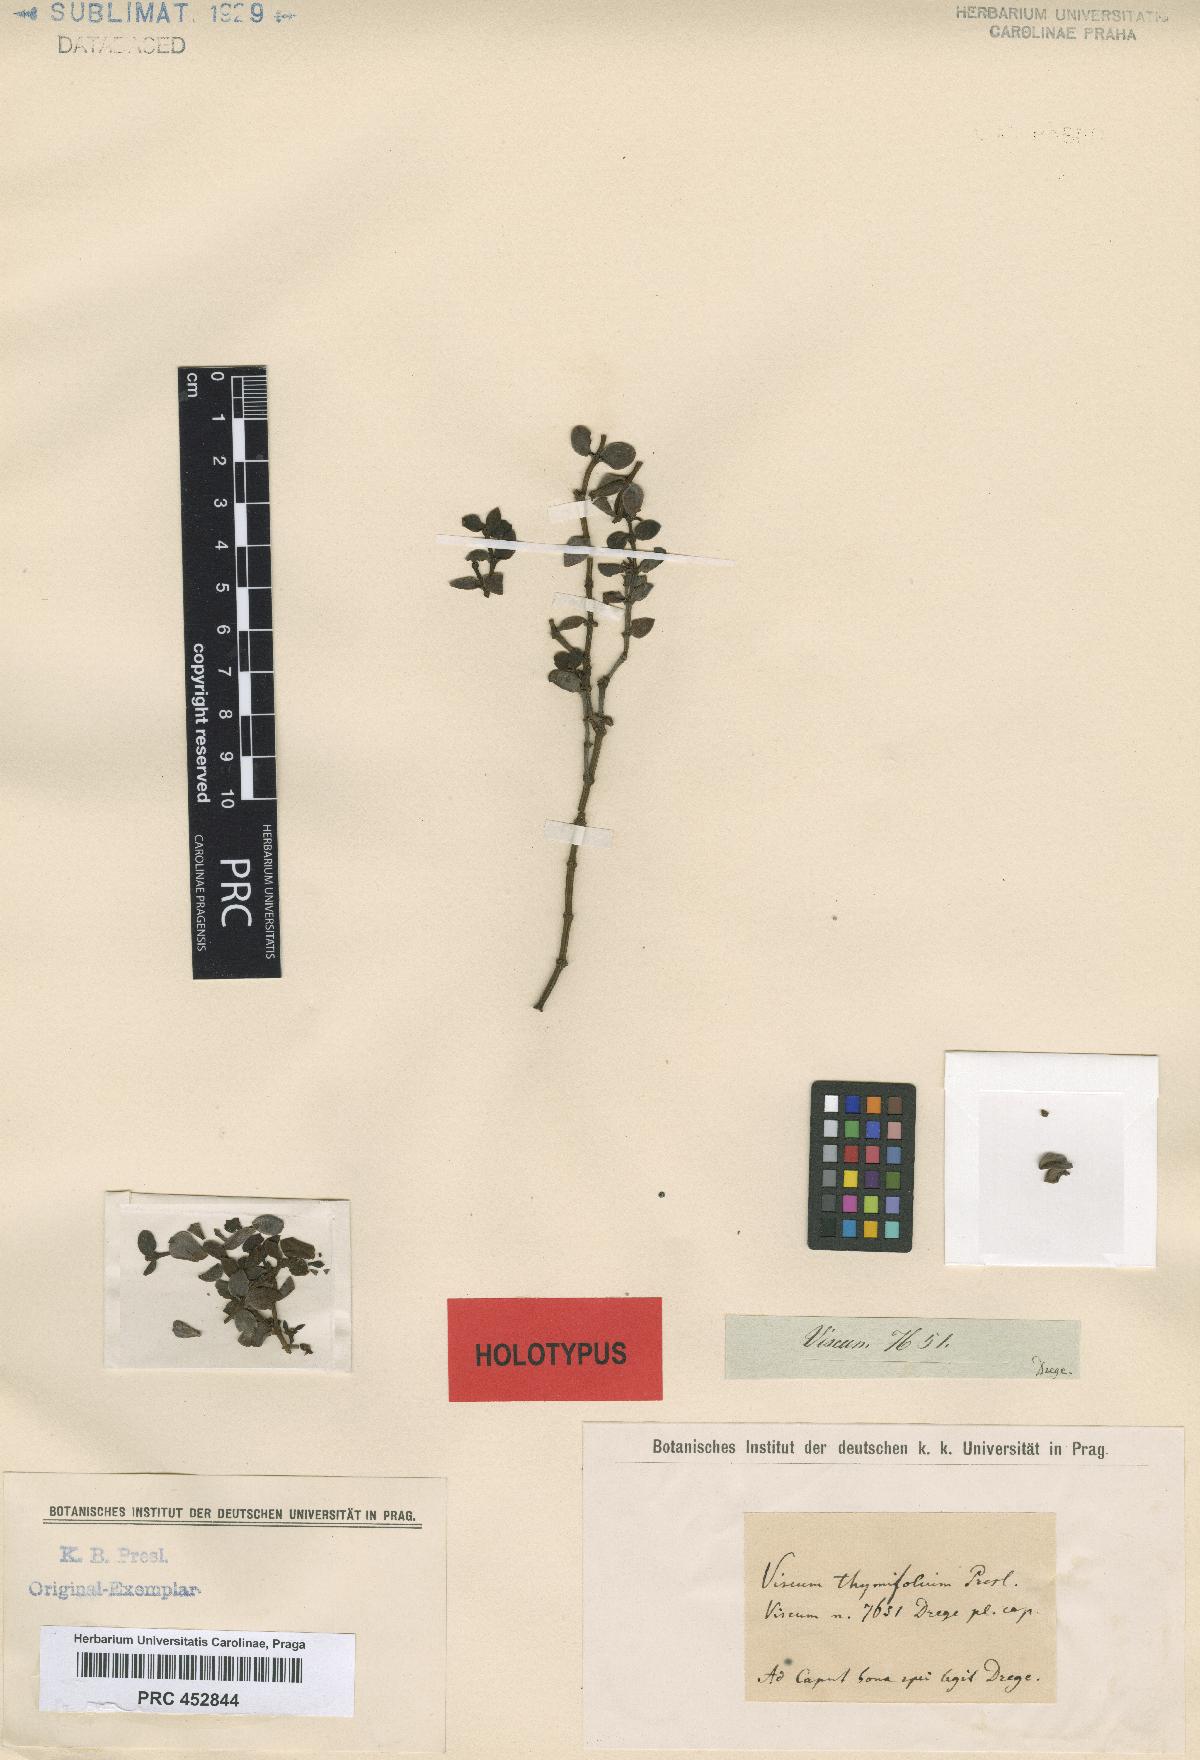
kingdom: Plantae
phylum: Tracheophyta
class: Magnoliopsida
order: Santalales
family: Viscaceae
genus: Viscum
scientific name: Viscum rotundifolium
